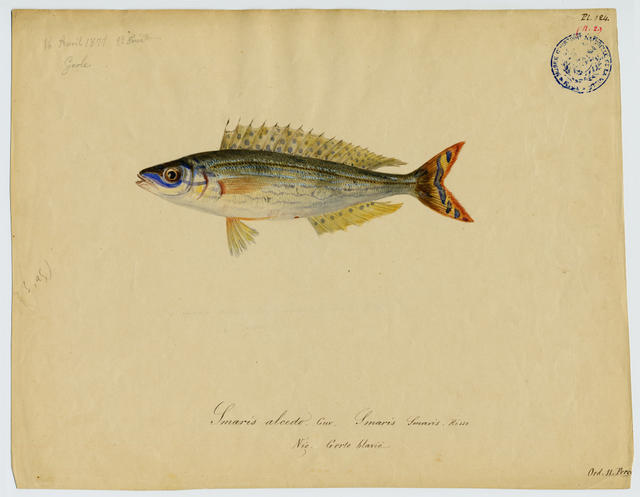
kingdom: Animalia
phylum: Chordata
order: Perciformes
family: Sparidae
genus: Spicara
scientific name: Spicara smaris
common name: Picarel
